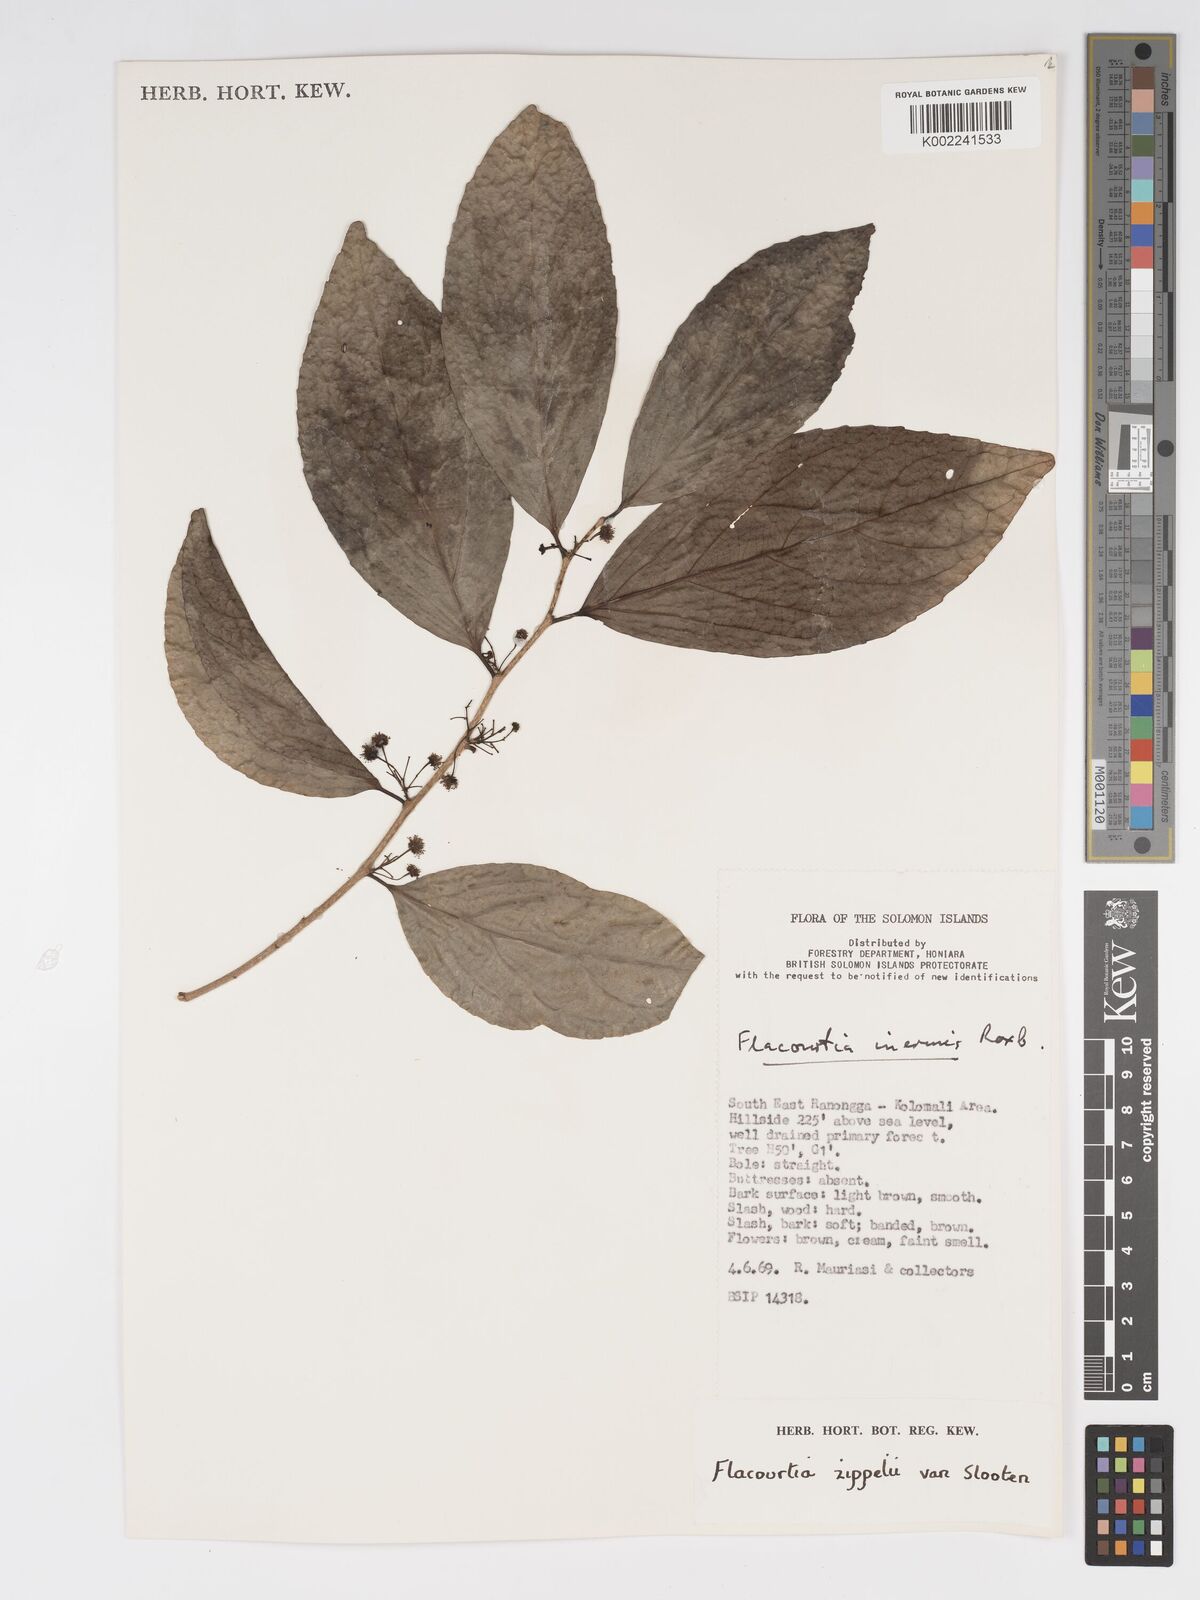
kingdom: Plantae
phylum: Tracheophyta
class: Magnoliopsida
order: Malpighiales
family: Salicaceae
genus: Flacourtia
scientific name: Flacourtia zippelii
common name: Zippeli plum
